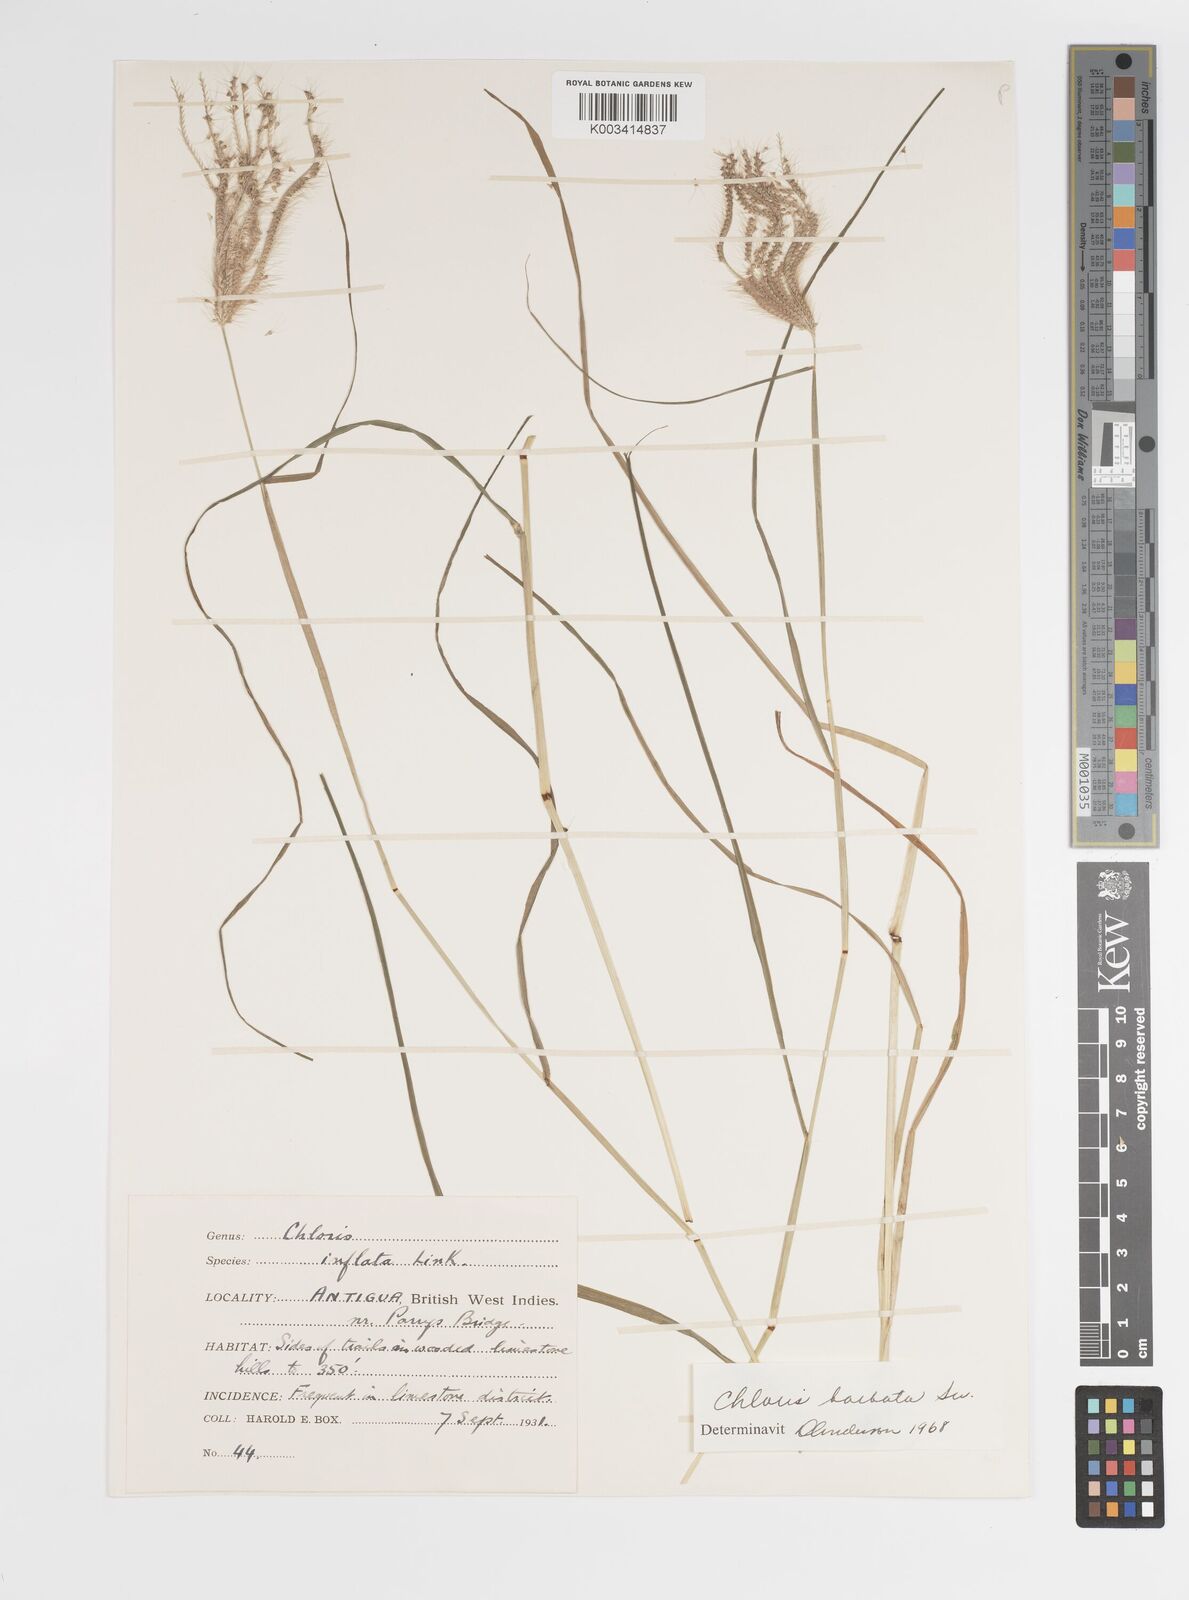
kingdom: Plantae
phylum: Tracheophyta
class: Liliopsida
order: Poales
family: Poaceae
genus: Chloris
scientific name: Chloris barbata
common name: Swollen fingergrass
